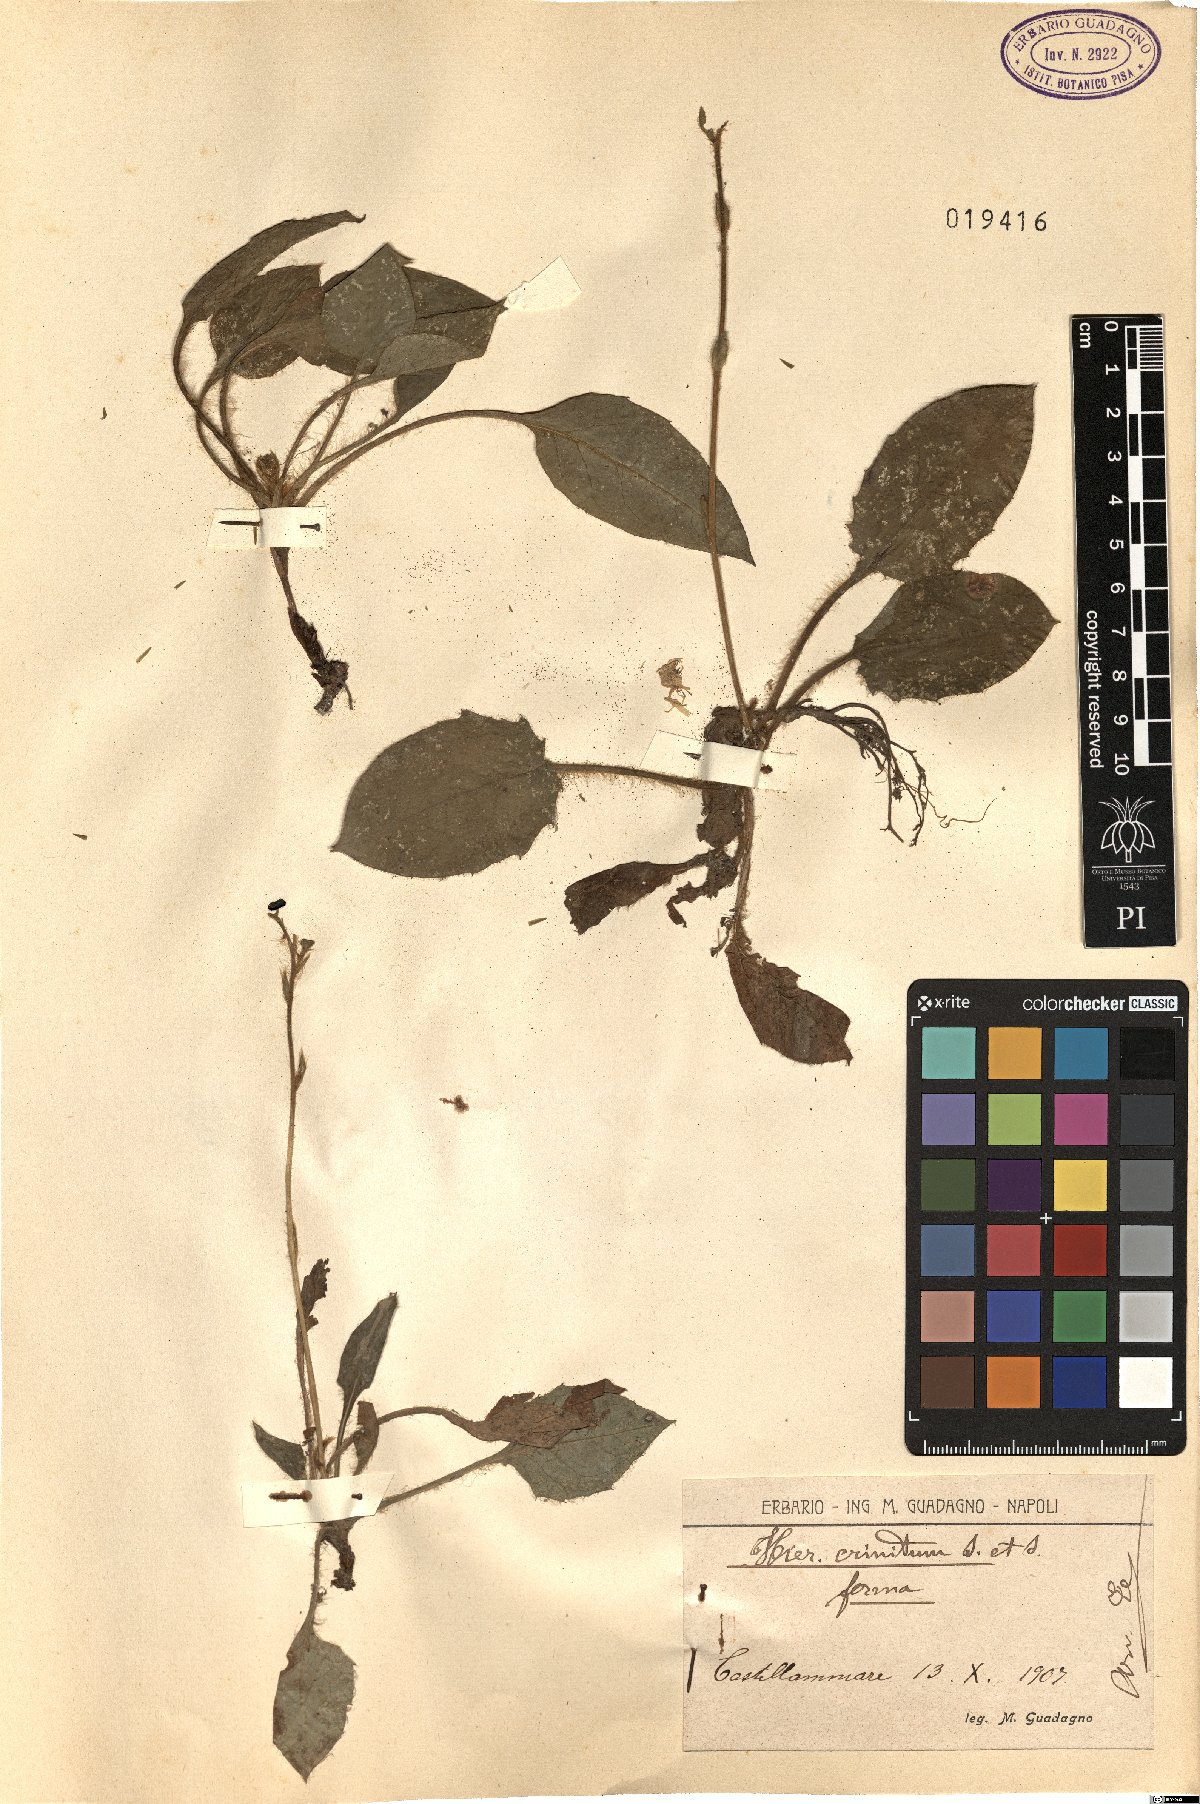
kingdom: Plantae
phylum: Tracheophyta
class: Magnoliopsida
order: Asterales
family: Asteraceae
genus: Hieracium
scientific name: Hieracium racemosum
